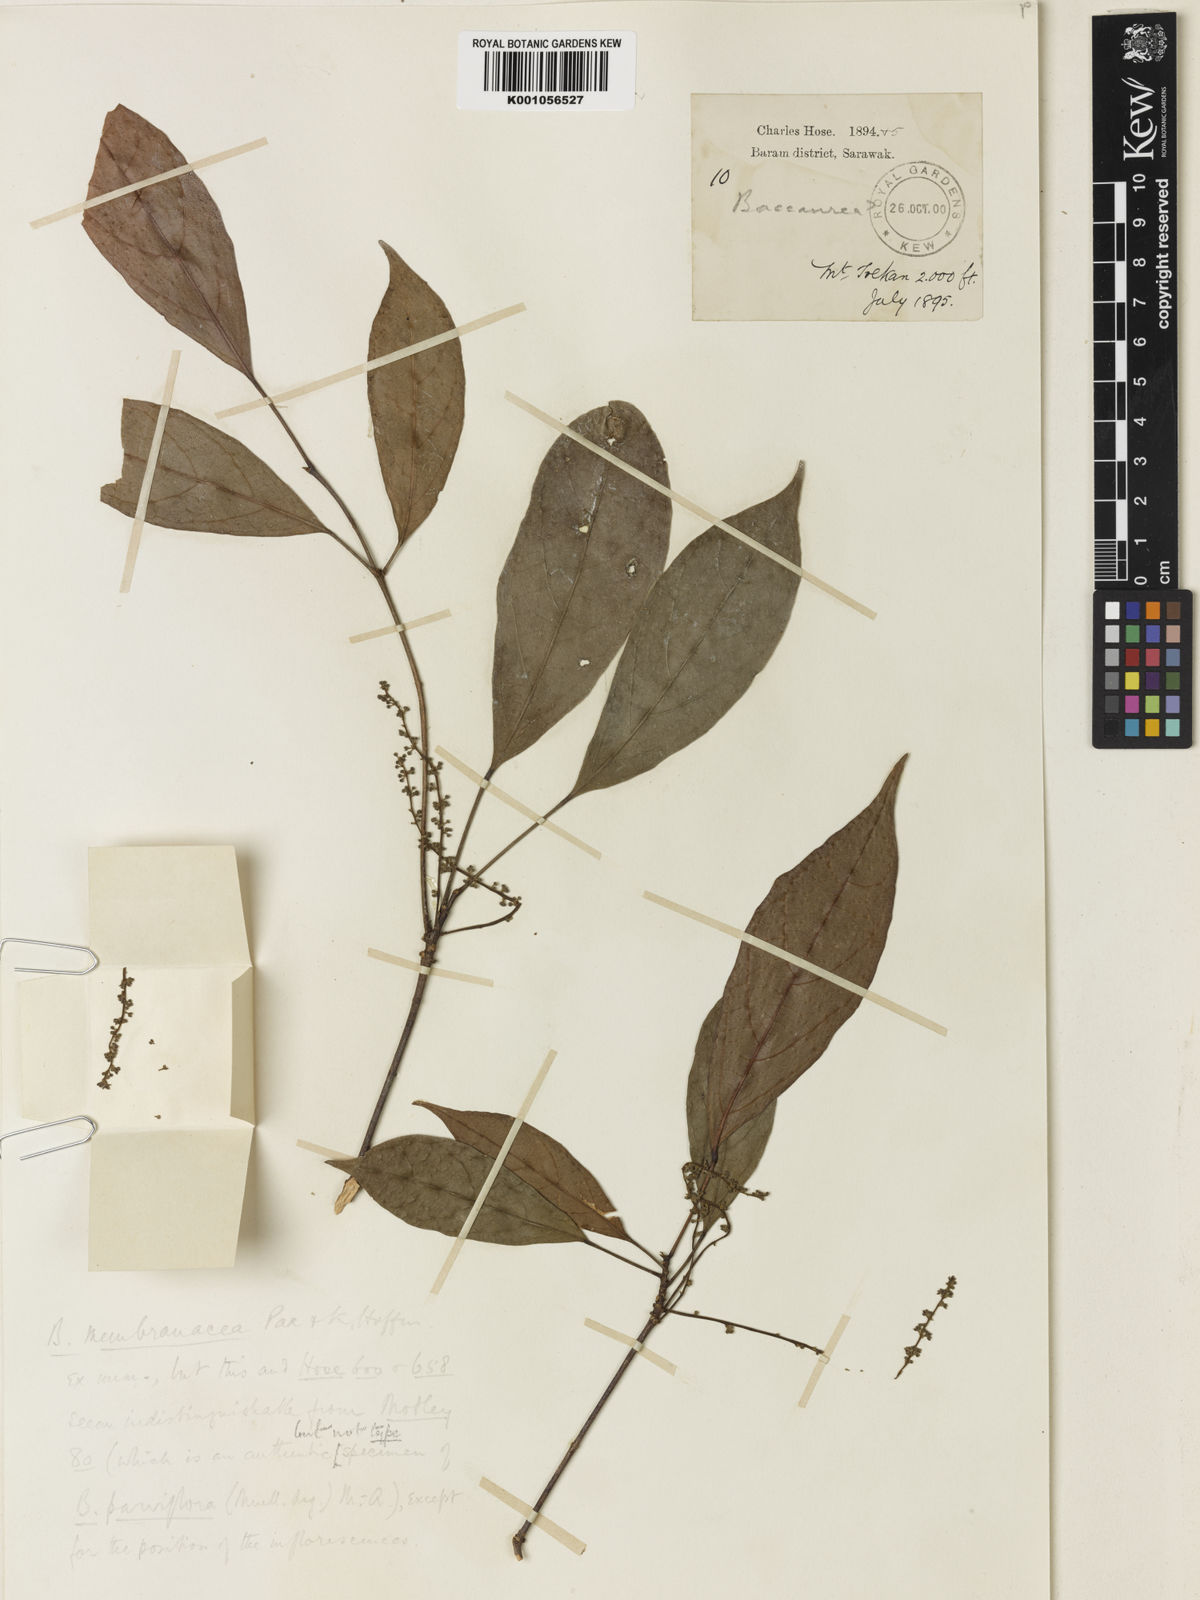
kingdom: Plantae
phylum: Tracheophyta
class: Magnoliopsida
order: Malpighiales
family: Phyllanthaceae
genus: Baccaurea
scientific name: Baccaurea odoratissima
